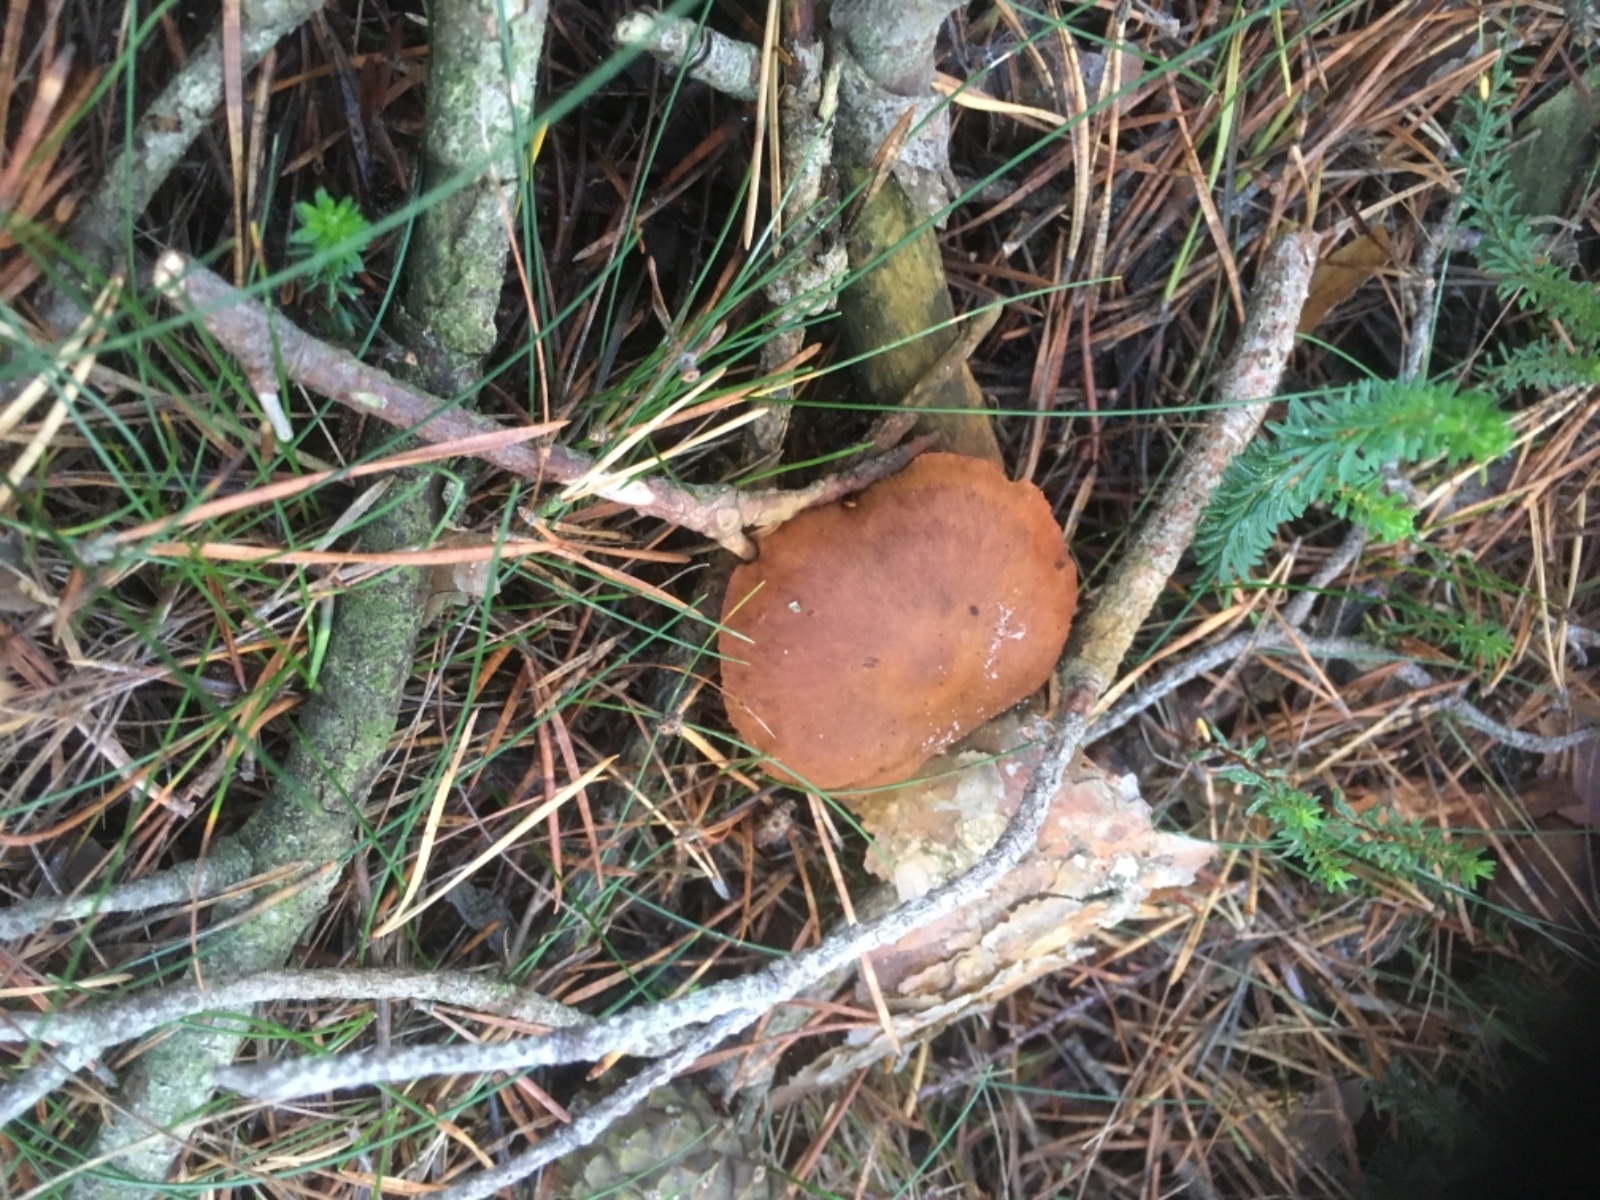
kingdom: Fungi
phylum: Basidiomycota
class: Agaricomycetes
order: Agaricales
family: Cortinariaceae
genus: Cortinarius
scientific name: Cortinarius
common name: cinnoberbladet slørhat
